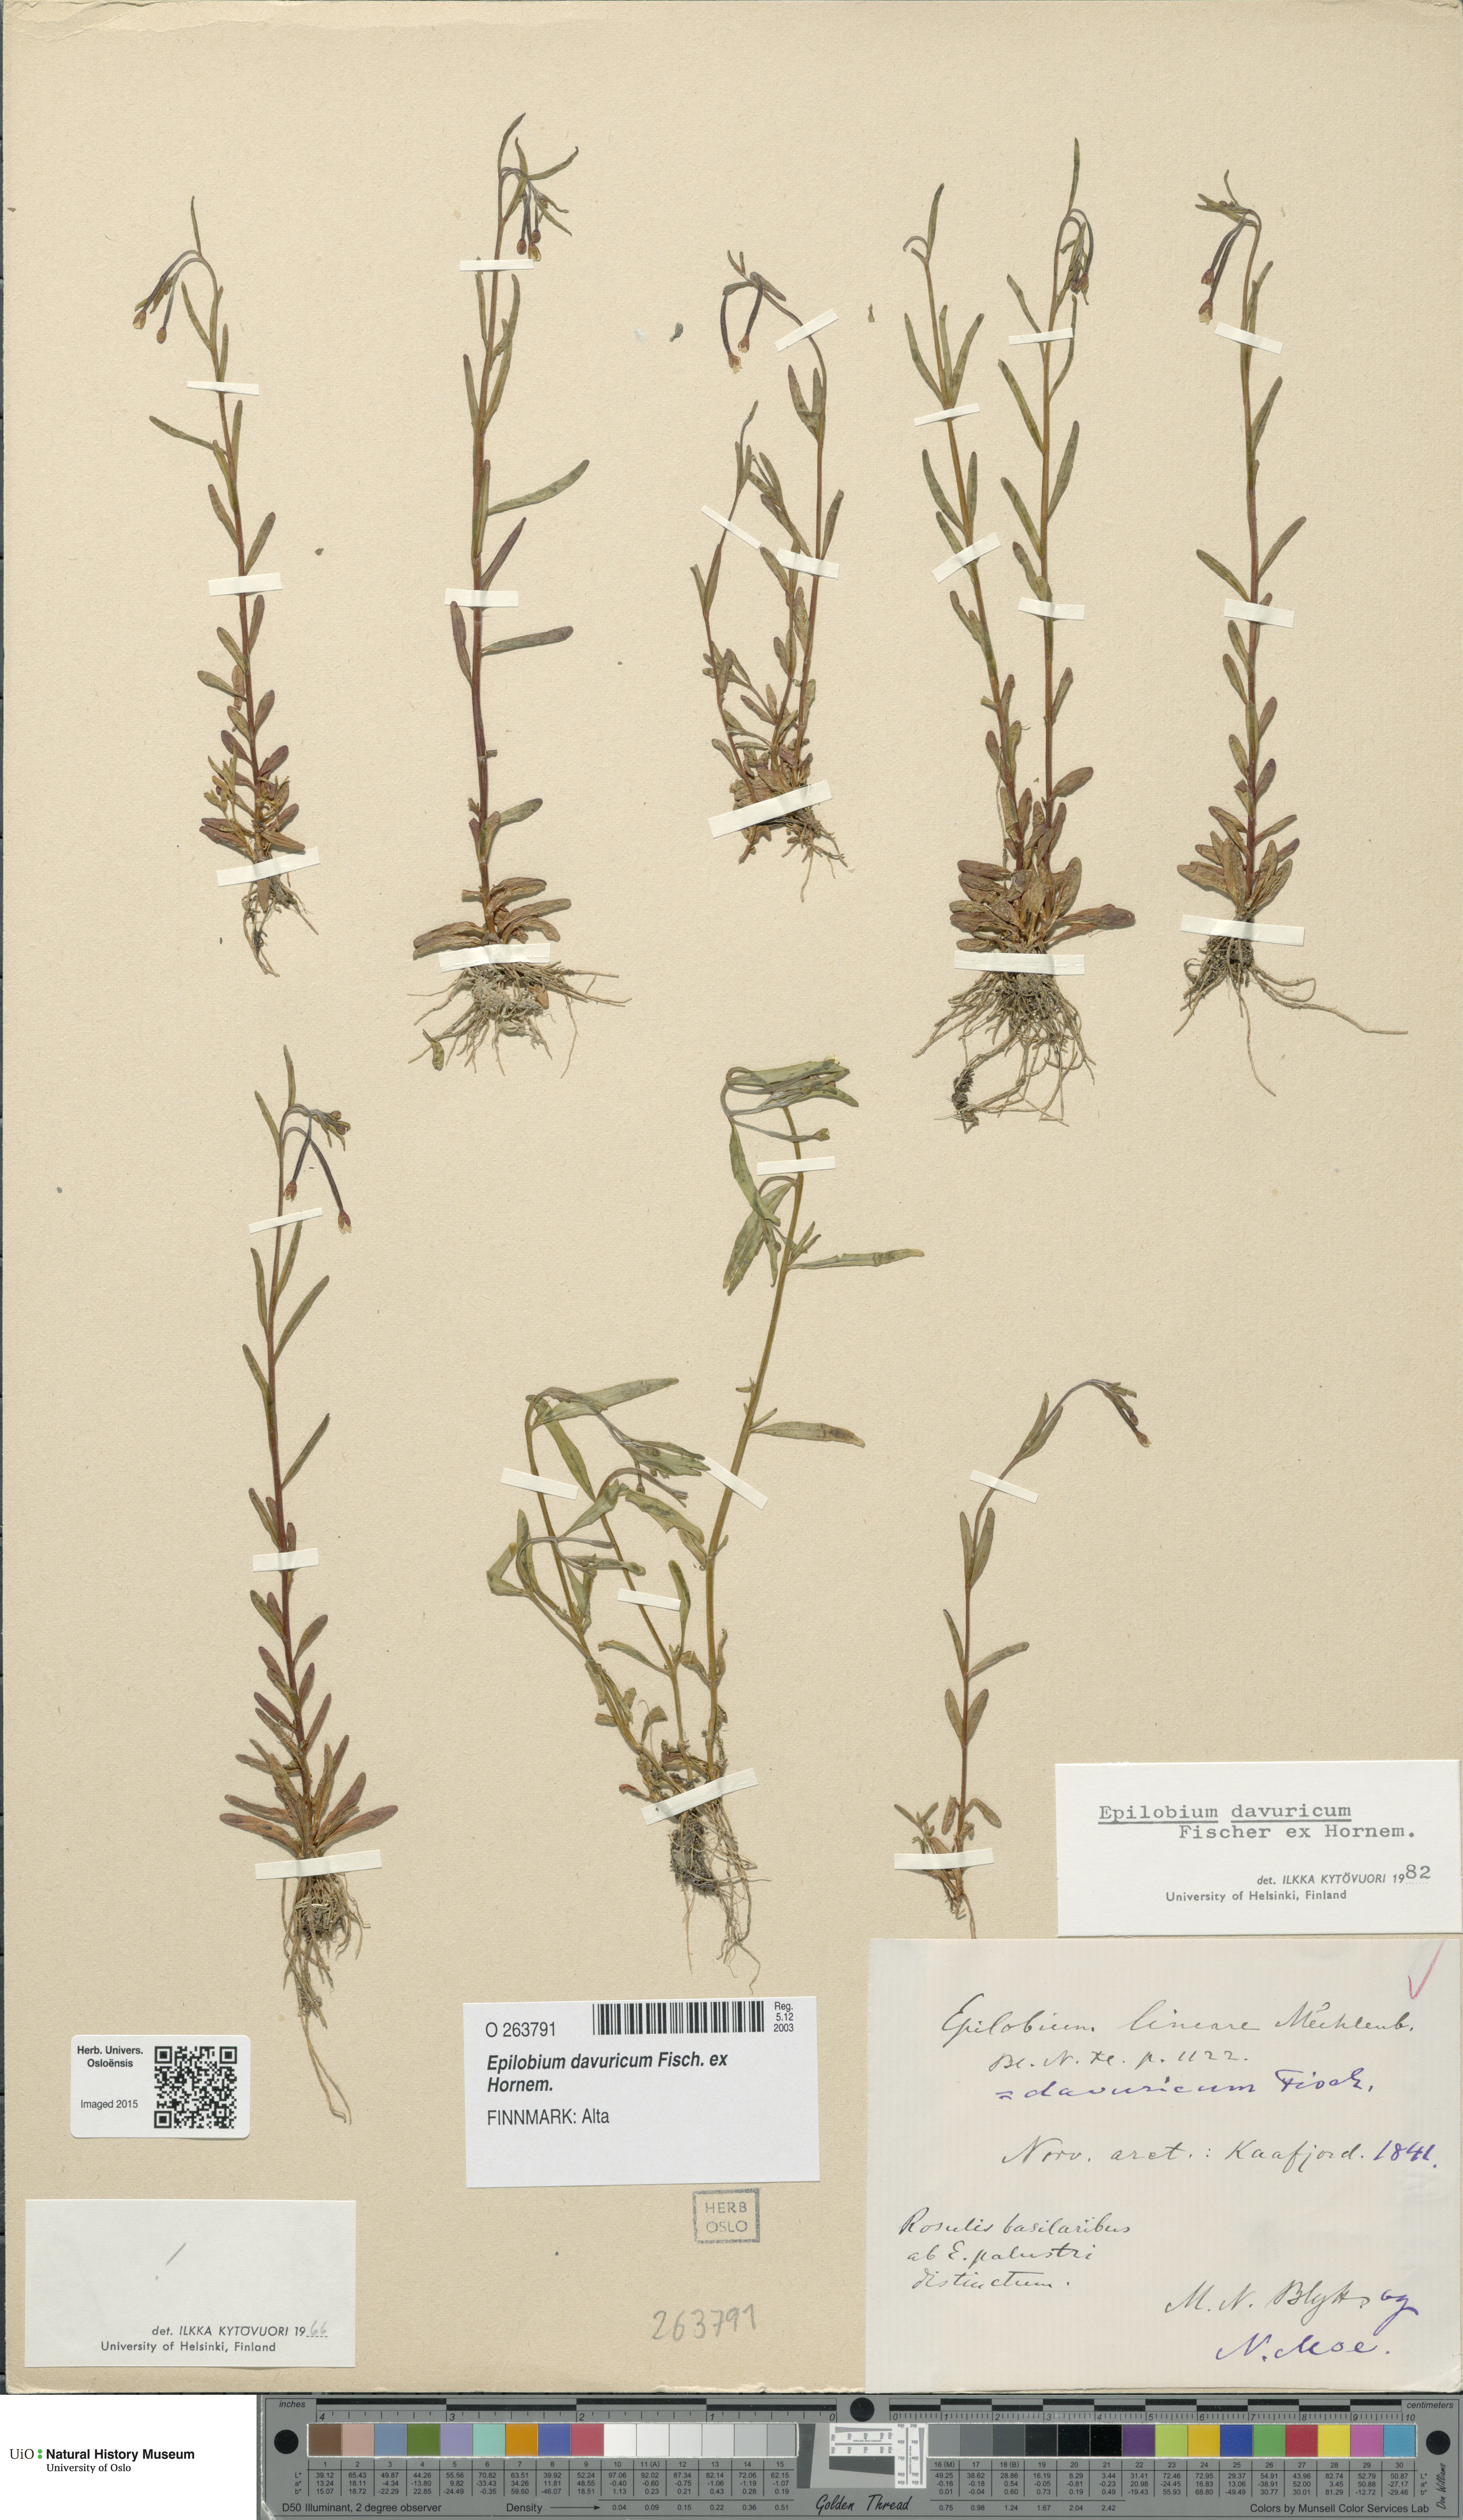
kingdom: Plantae
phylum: Tracheophyta
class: Magnoliopsida
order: Myrtales
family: Onagraceae
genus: Epilobium
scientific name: Epilobium davuricum
